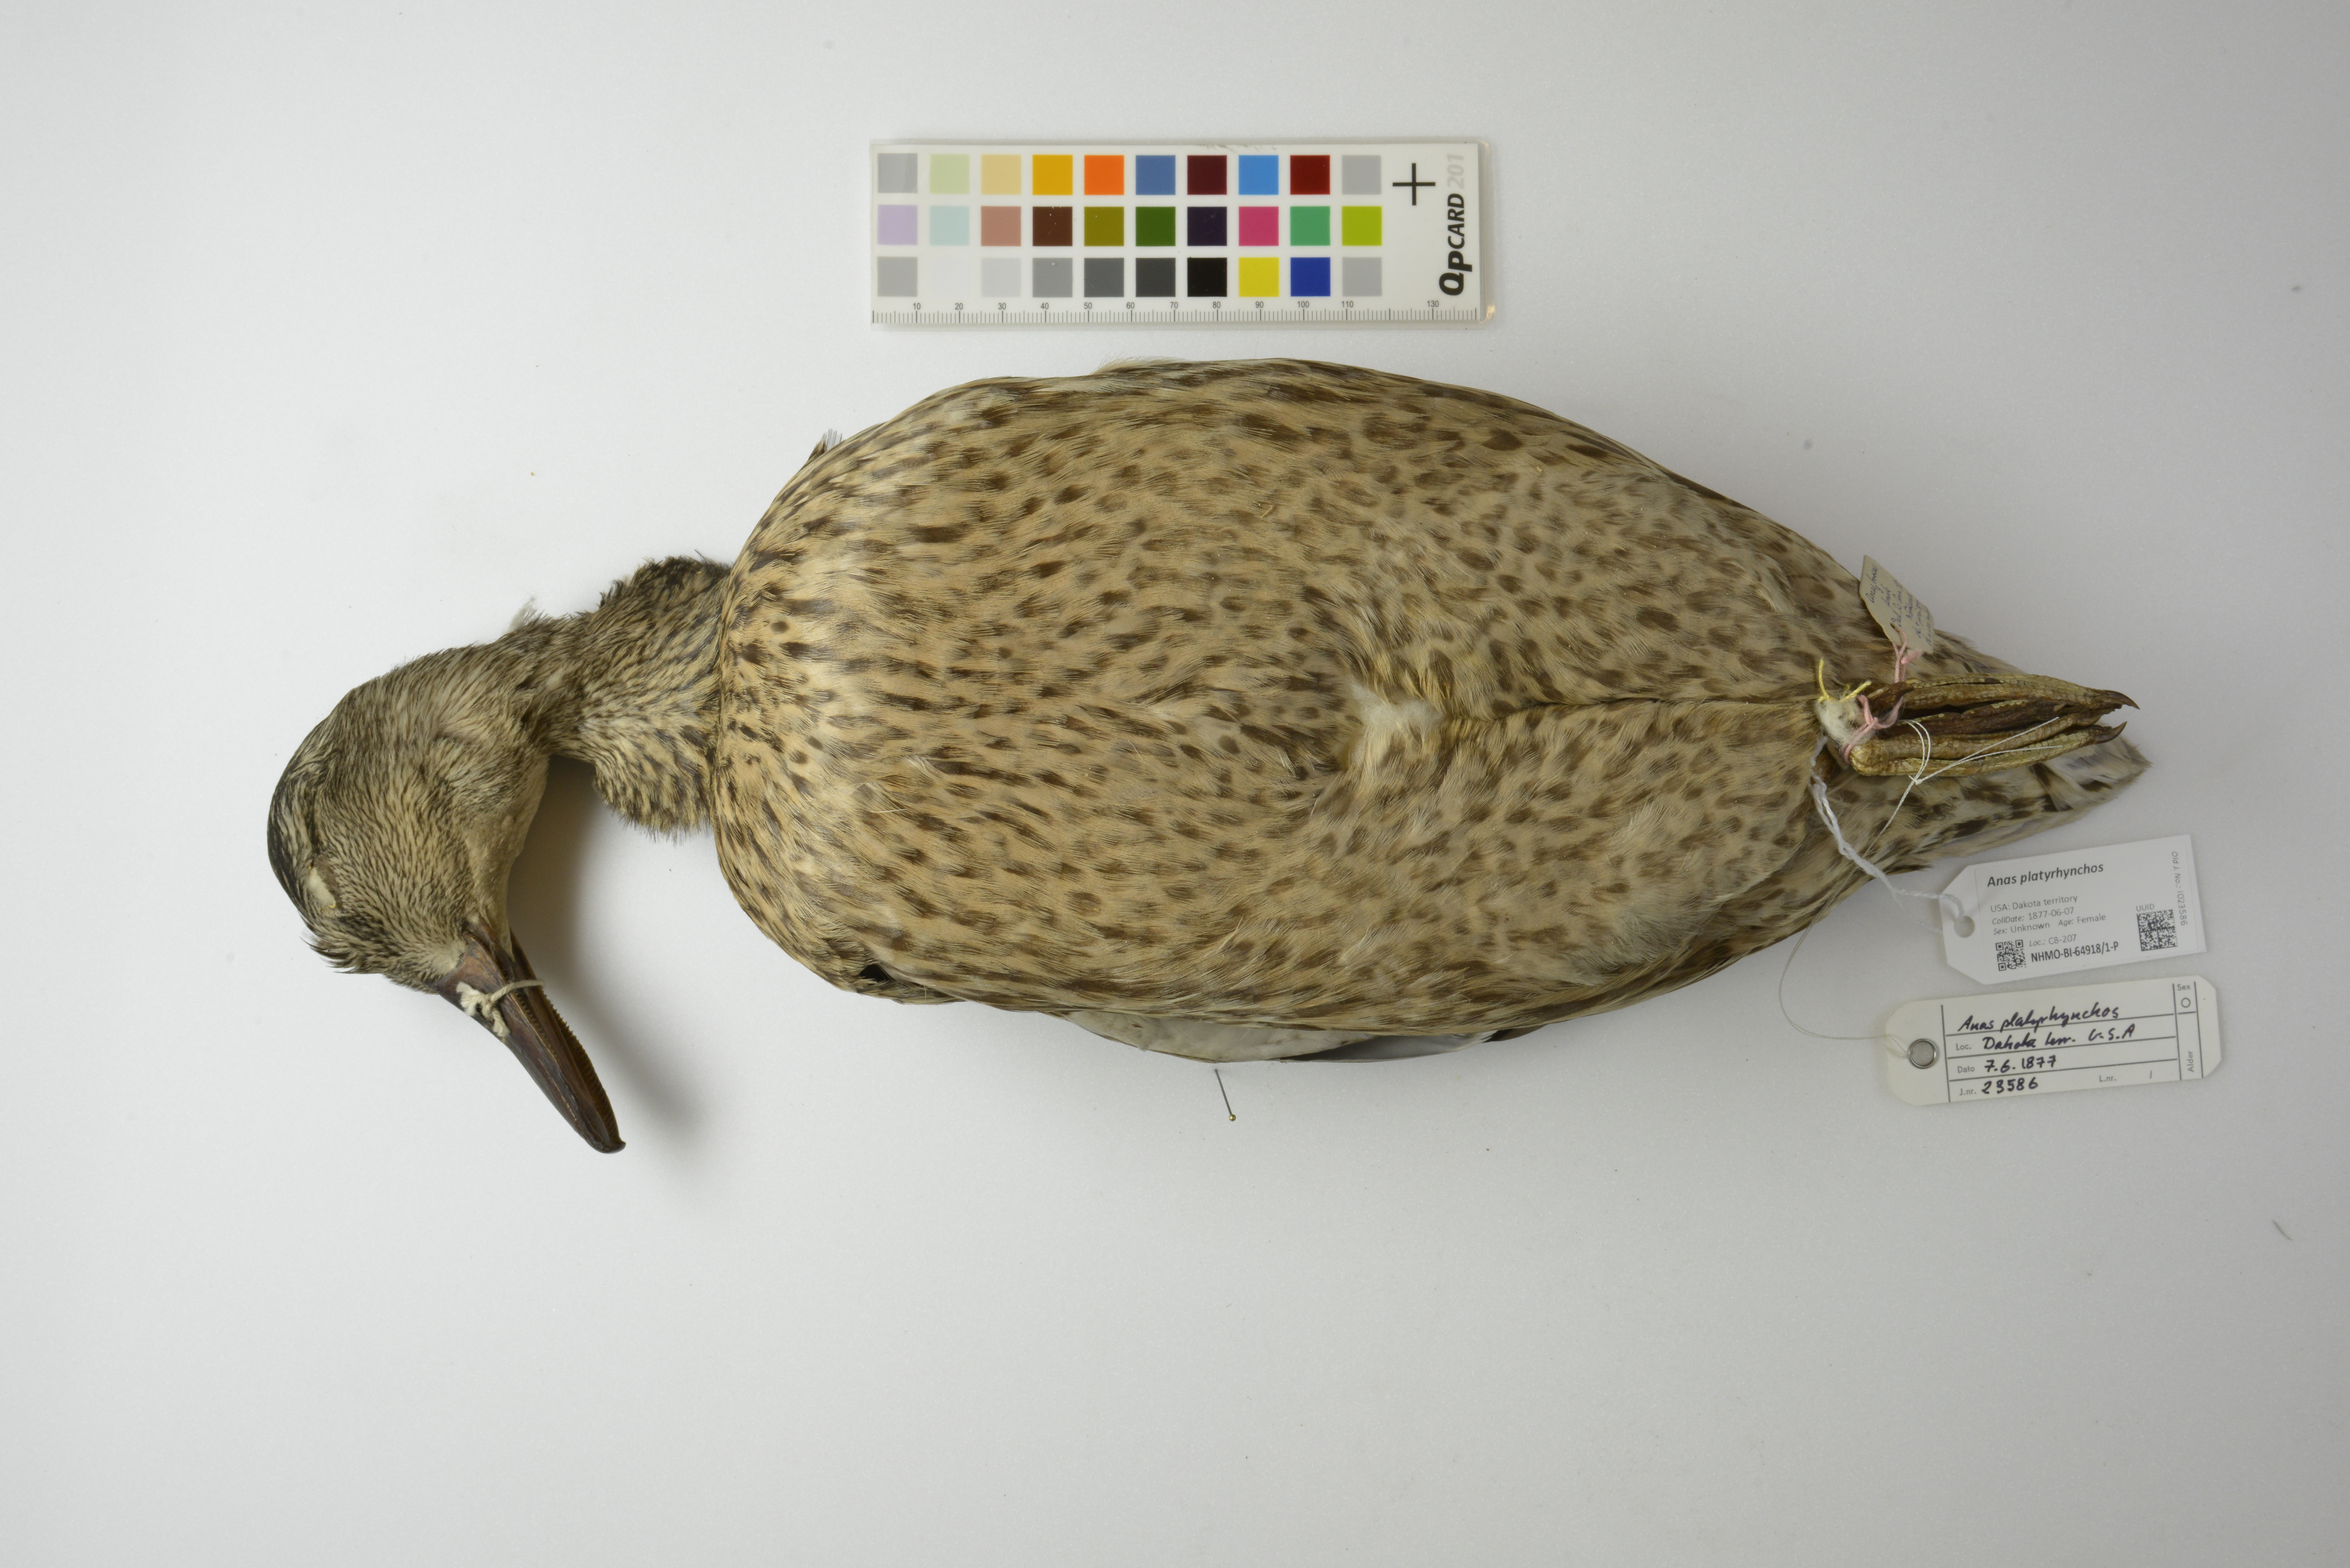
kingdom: Animalia
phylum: Chordata
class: Aves
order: Anseriformes
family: Anatidae
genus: Anas
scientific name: Anas platyrhynchos
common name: Mallard
